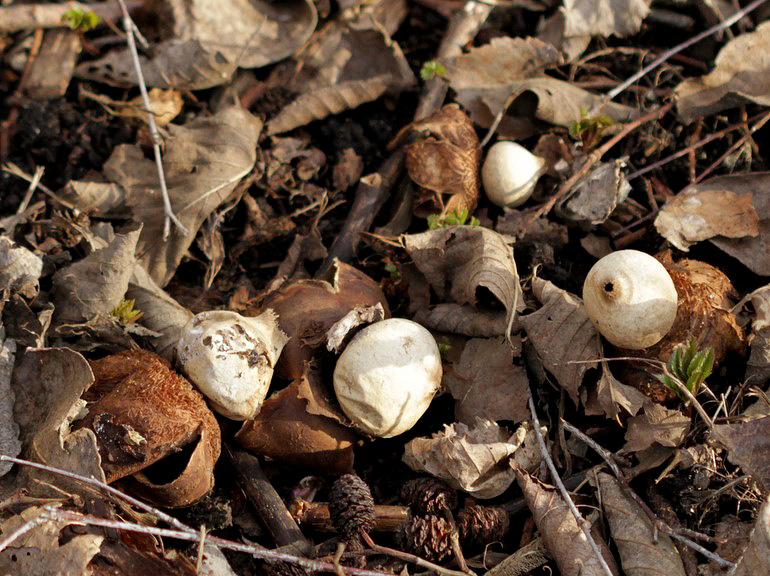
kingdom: Fungi
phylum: Basidiomycota
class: Agaricomycetes
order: Geastrales
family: Geastraceae
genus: Geastrum
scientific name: Geastrum michelianum
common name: kødet stjernebold
